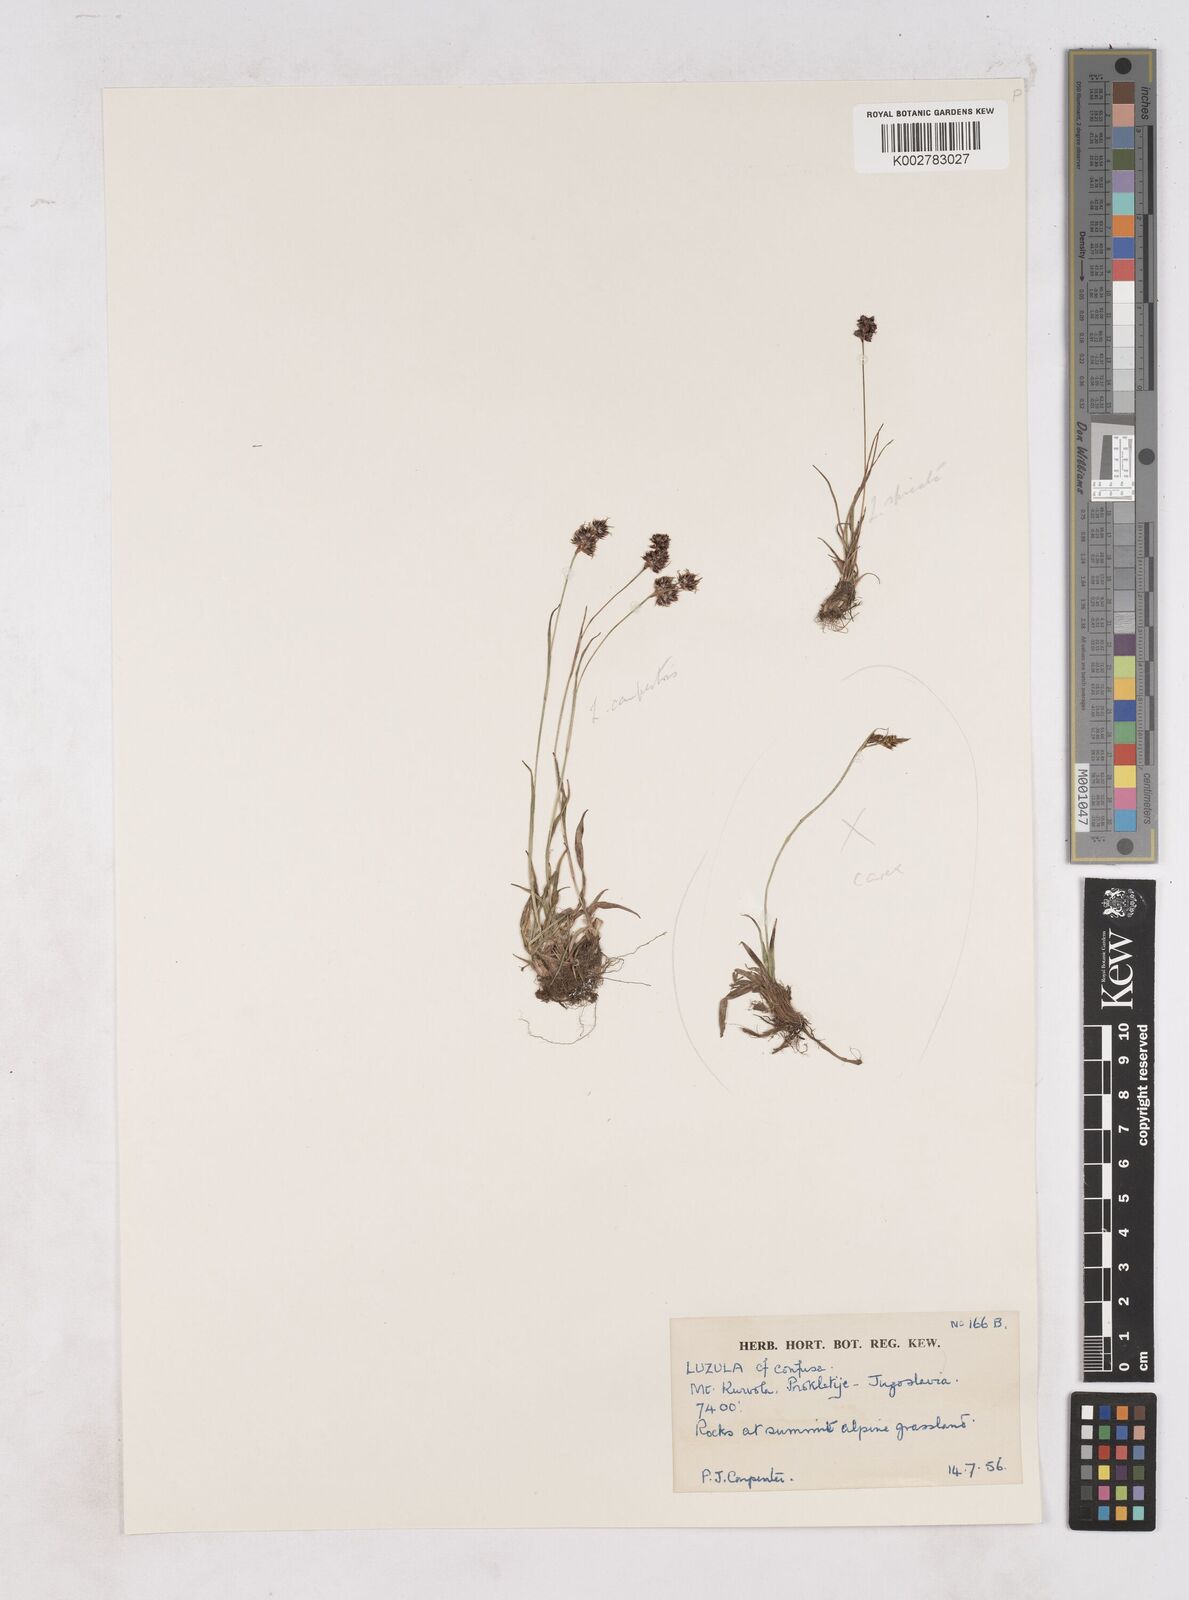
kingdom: Plantae
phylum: Tracheophyta
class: Liliopsida
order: Poales
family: Juncaceae
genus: Luzula
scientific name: Luzula campestris
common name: Field wood-rush
